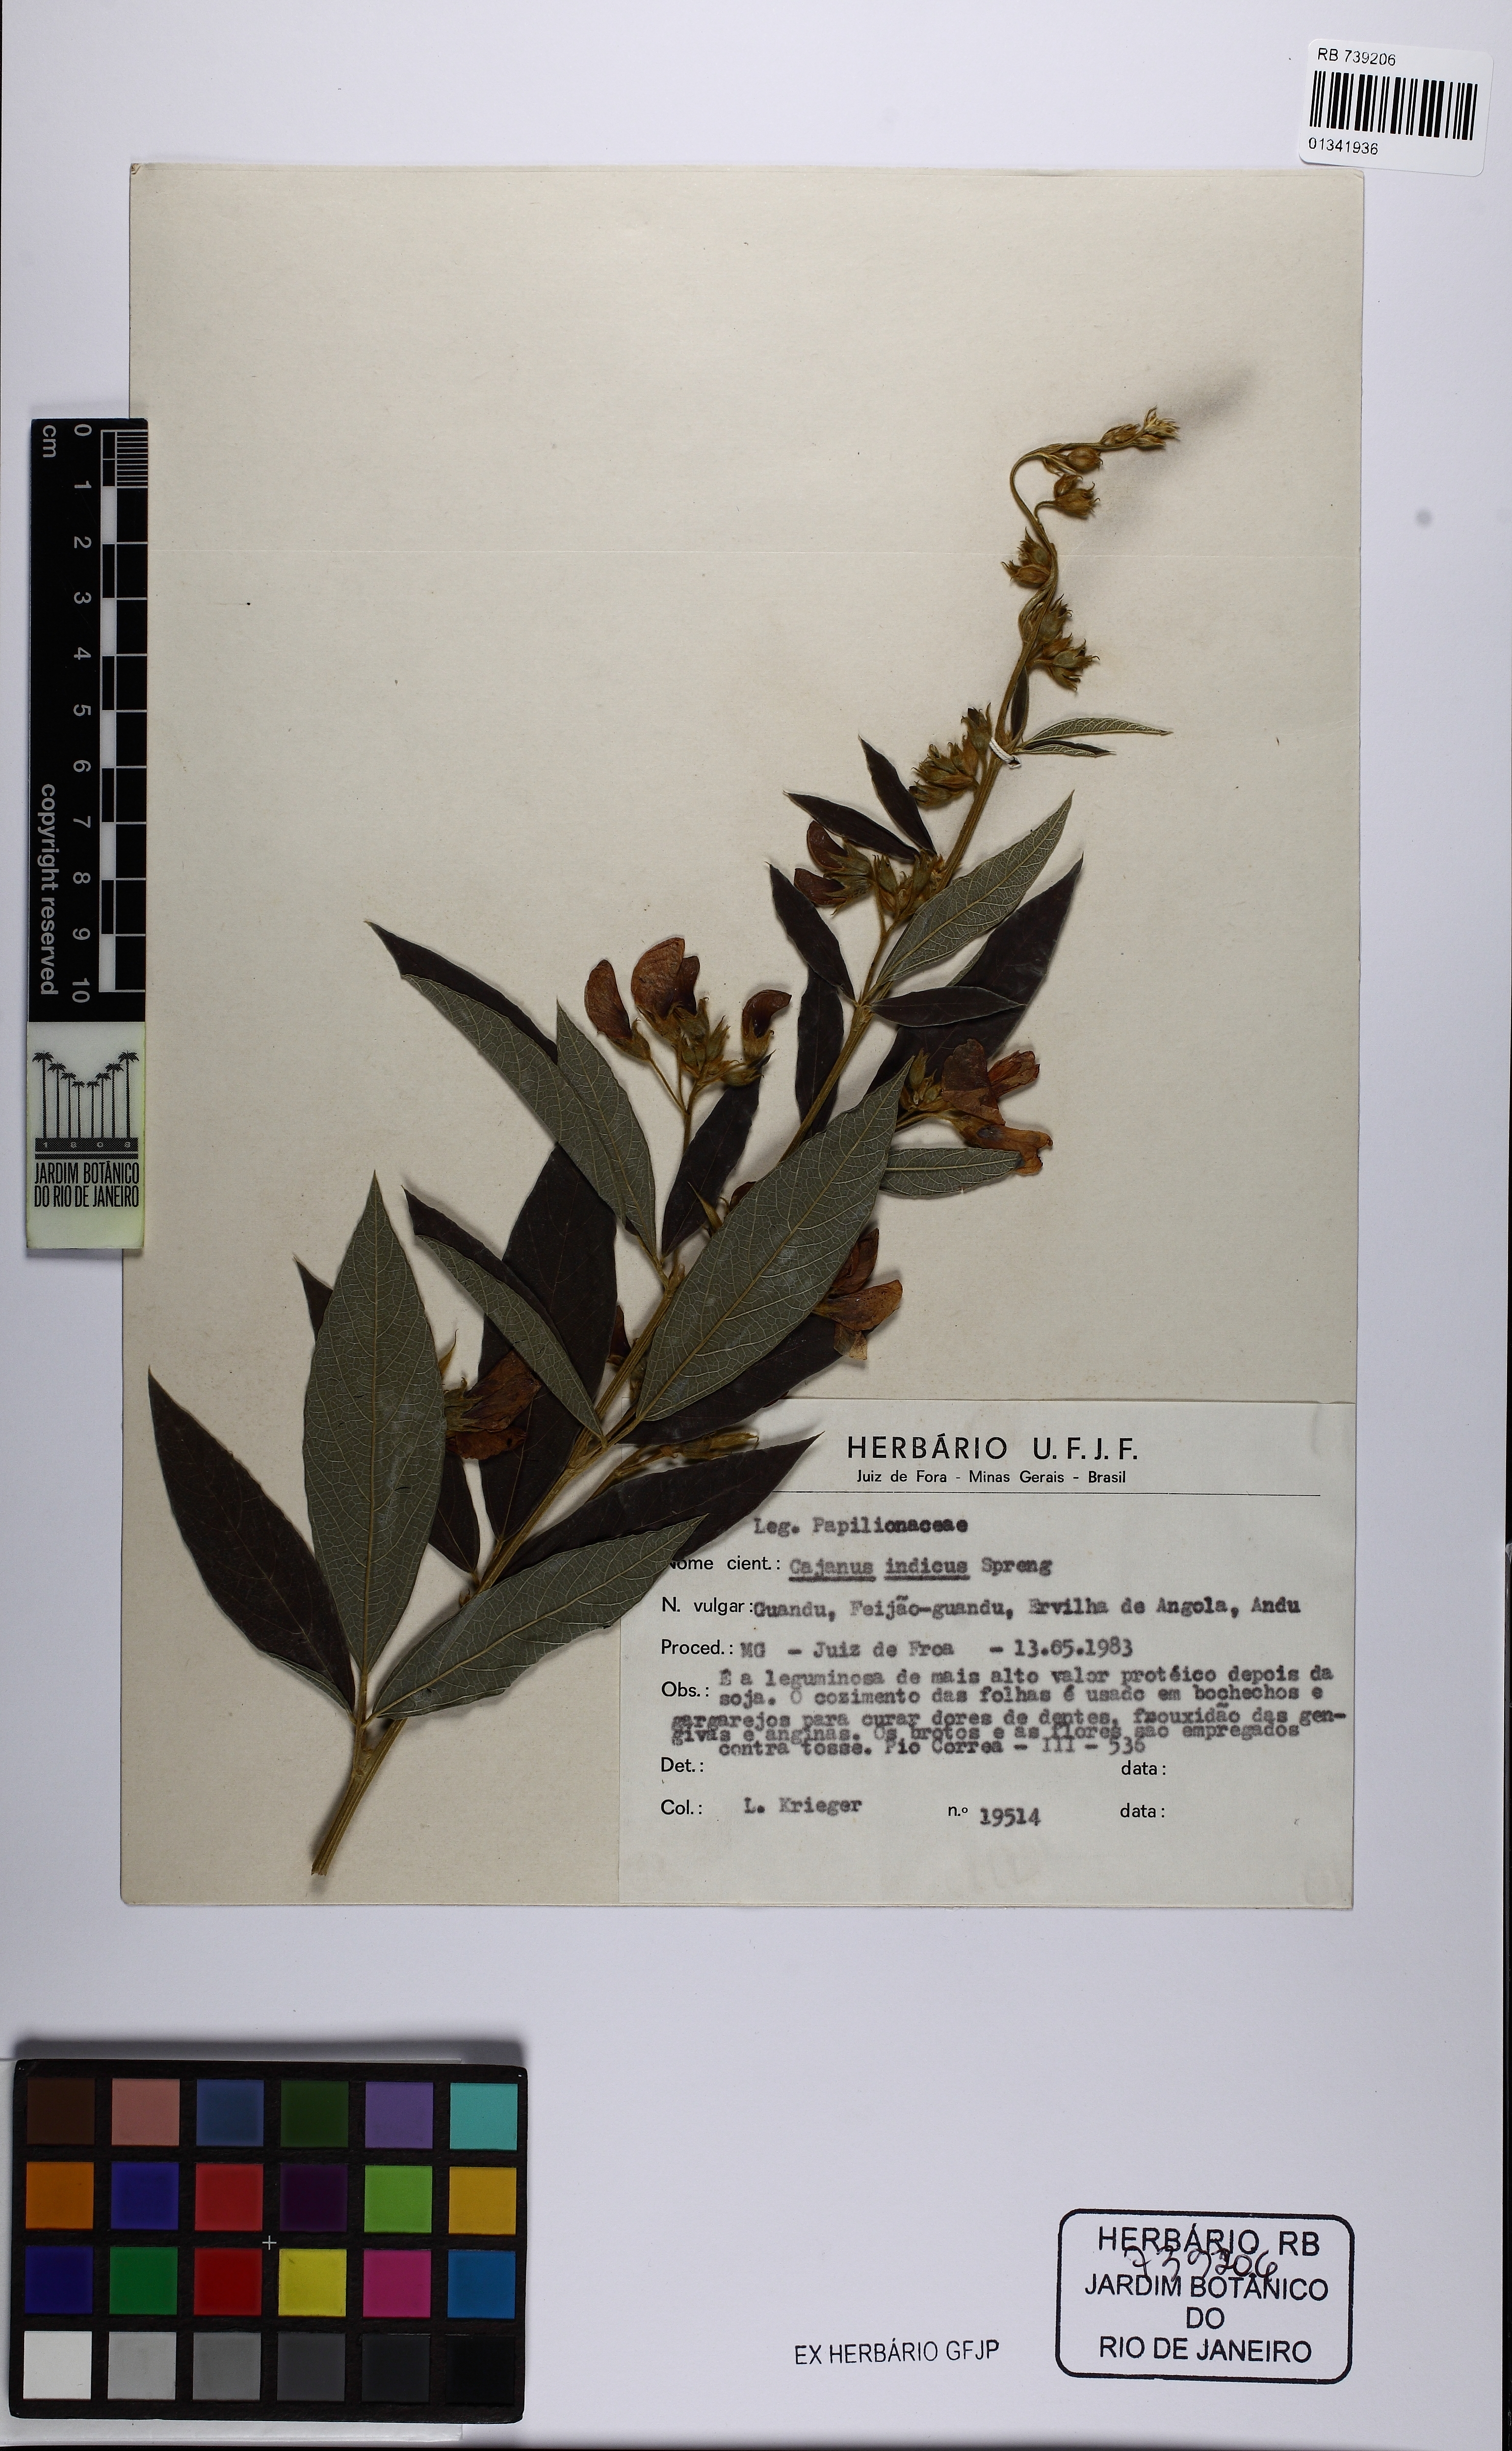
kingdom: Plantae
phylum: Tracheophyta
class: Magnoliopsida
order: Fabales
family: Fabaceae
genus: Cajanus
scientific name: Cajanus cajan
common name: Pigeonpea
